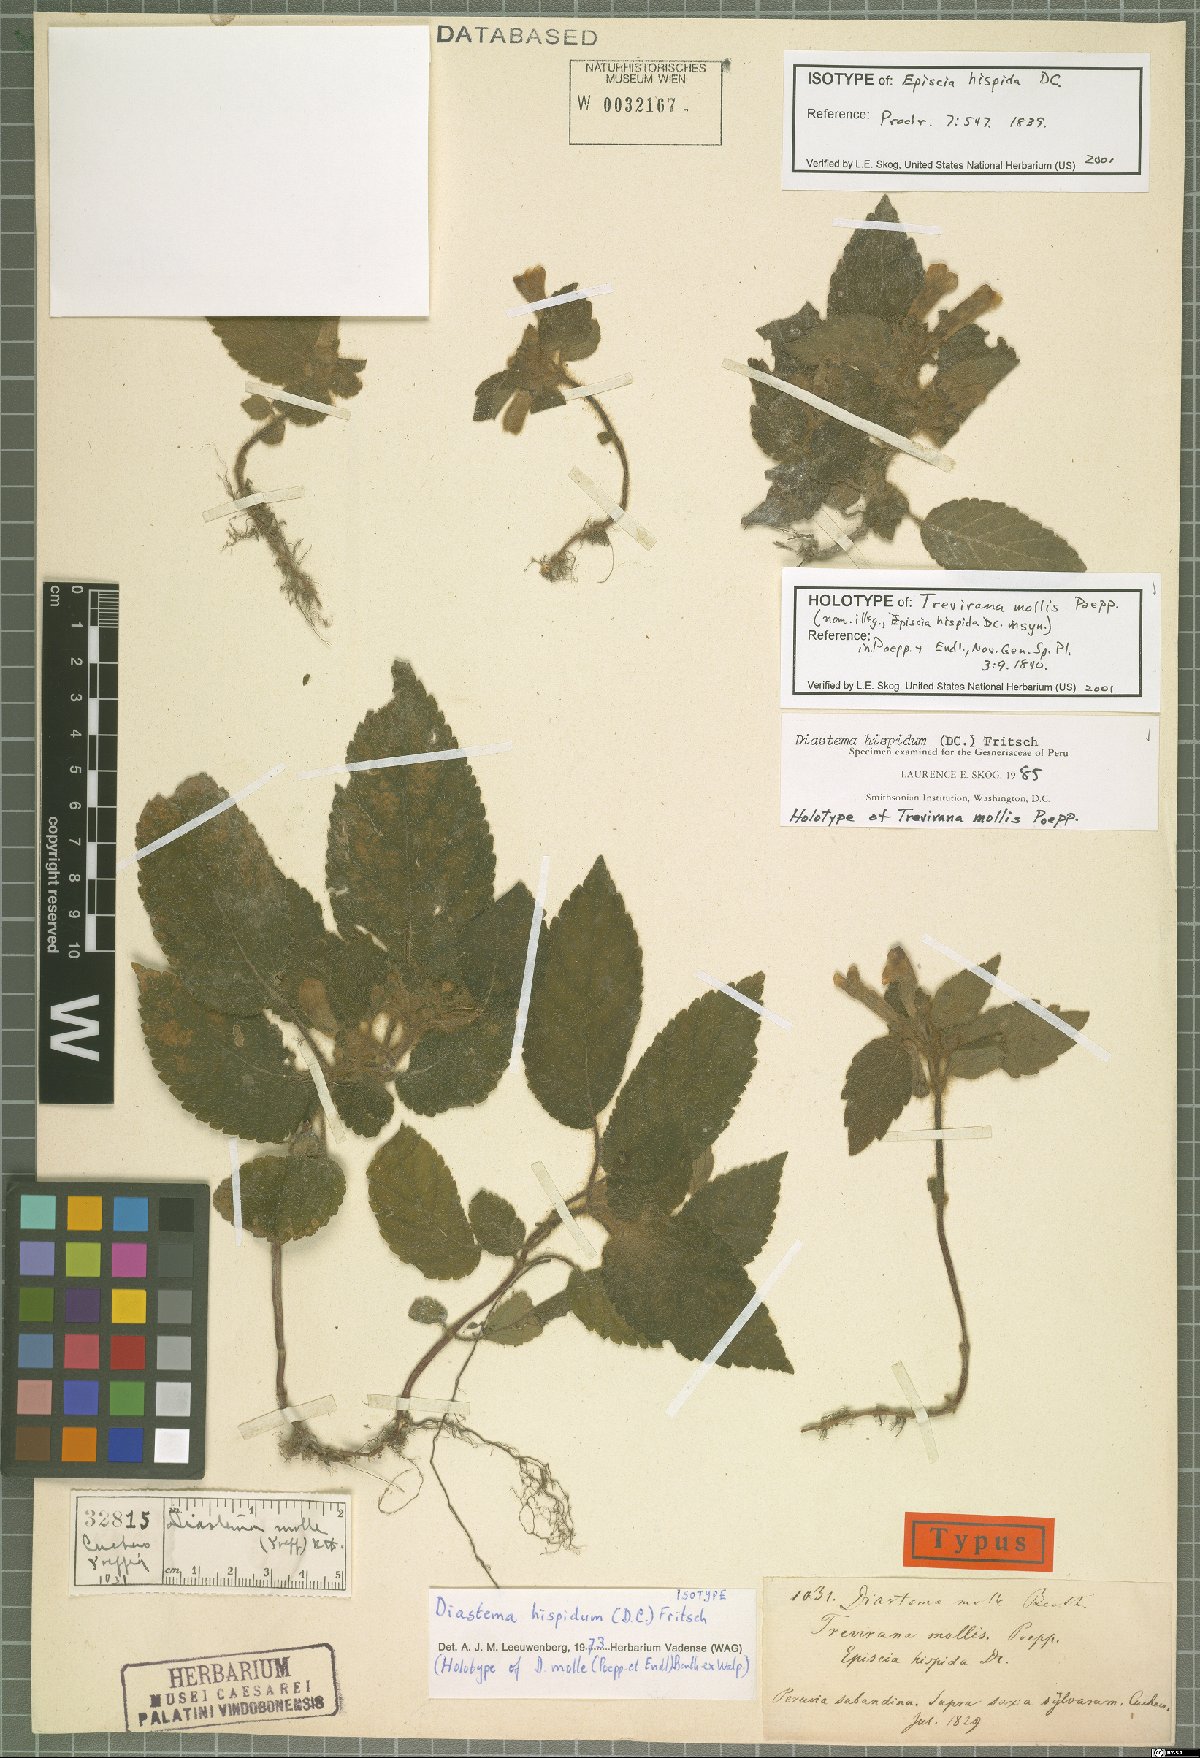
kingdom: Plantae
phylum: Tracheophyta
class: Magnoliopsida
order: Lamiales
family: Gesneriaceae
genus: Diastema
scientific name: Diastema hispidum
